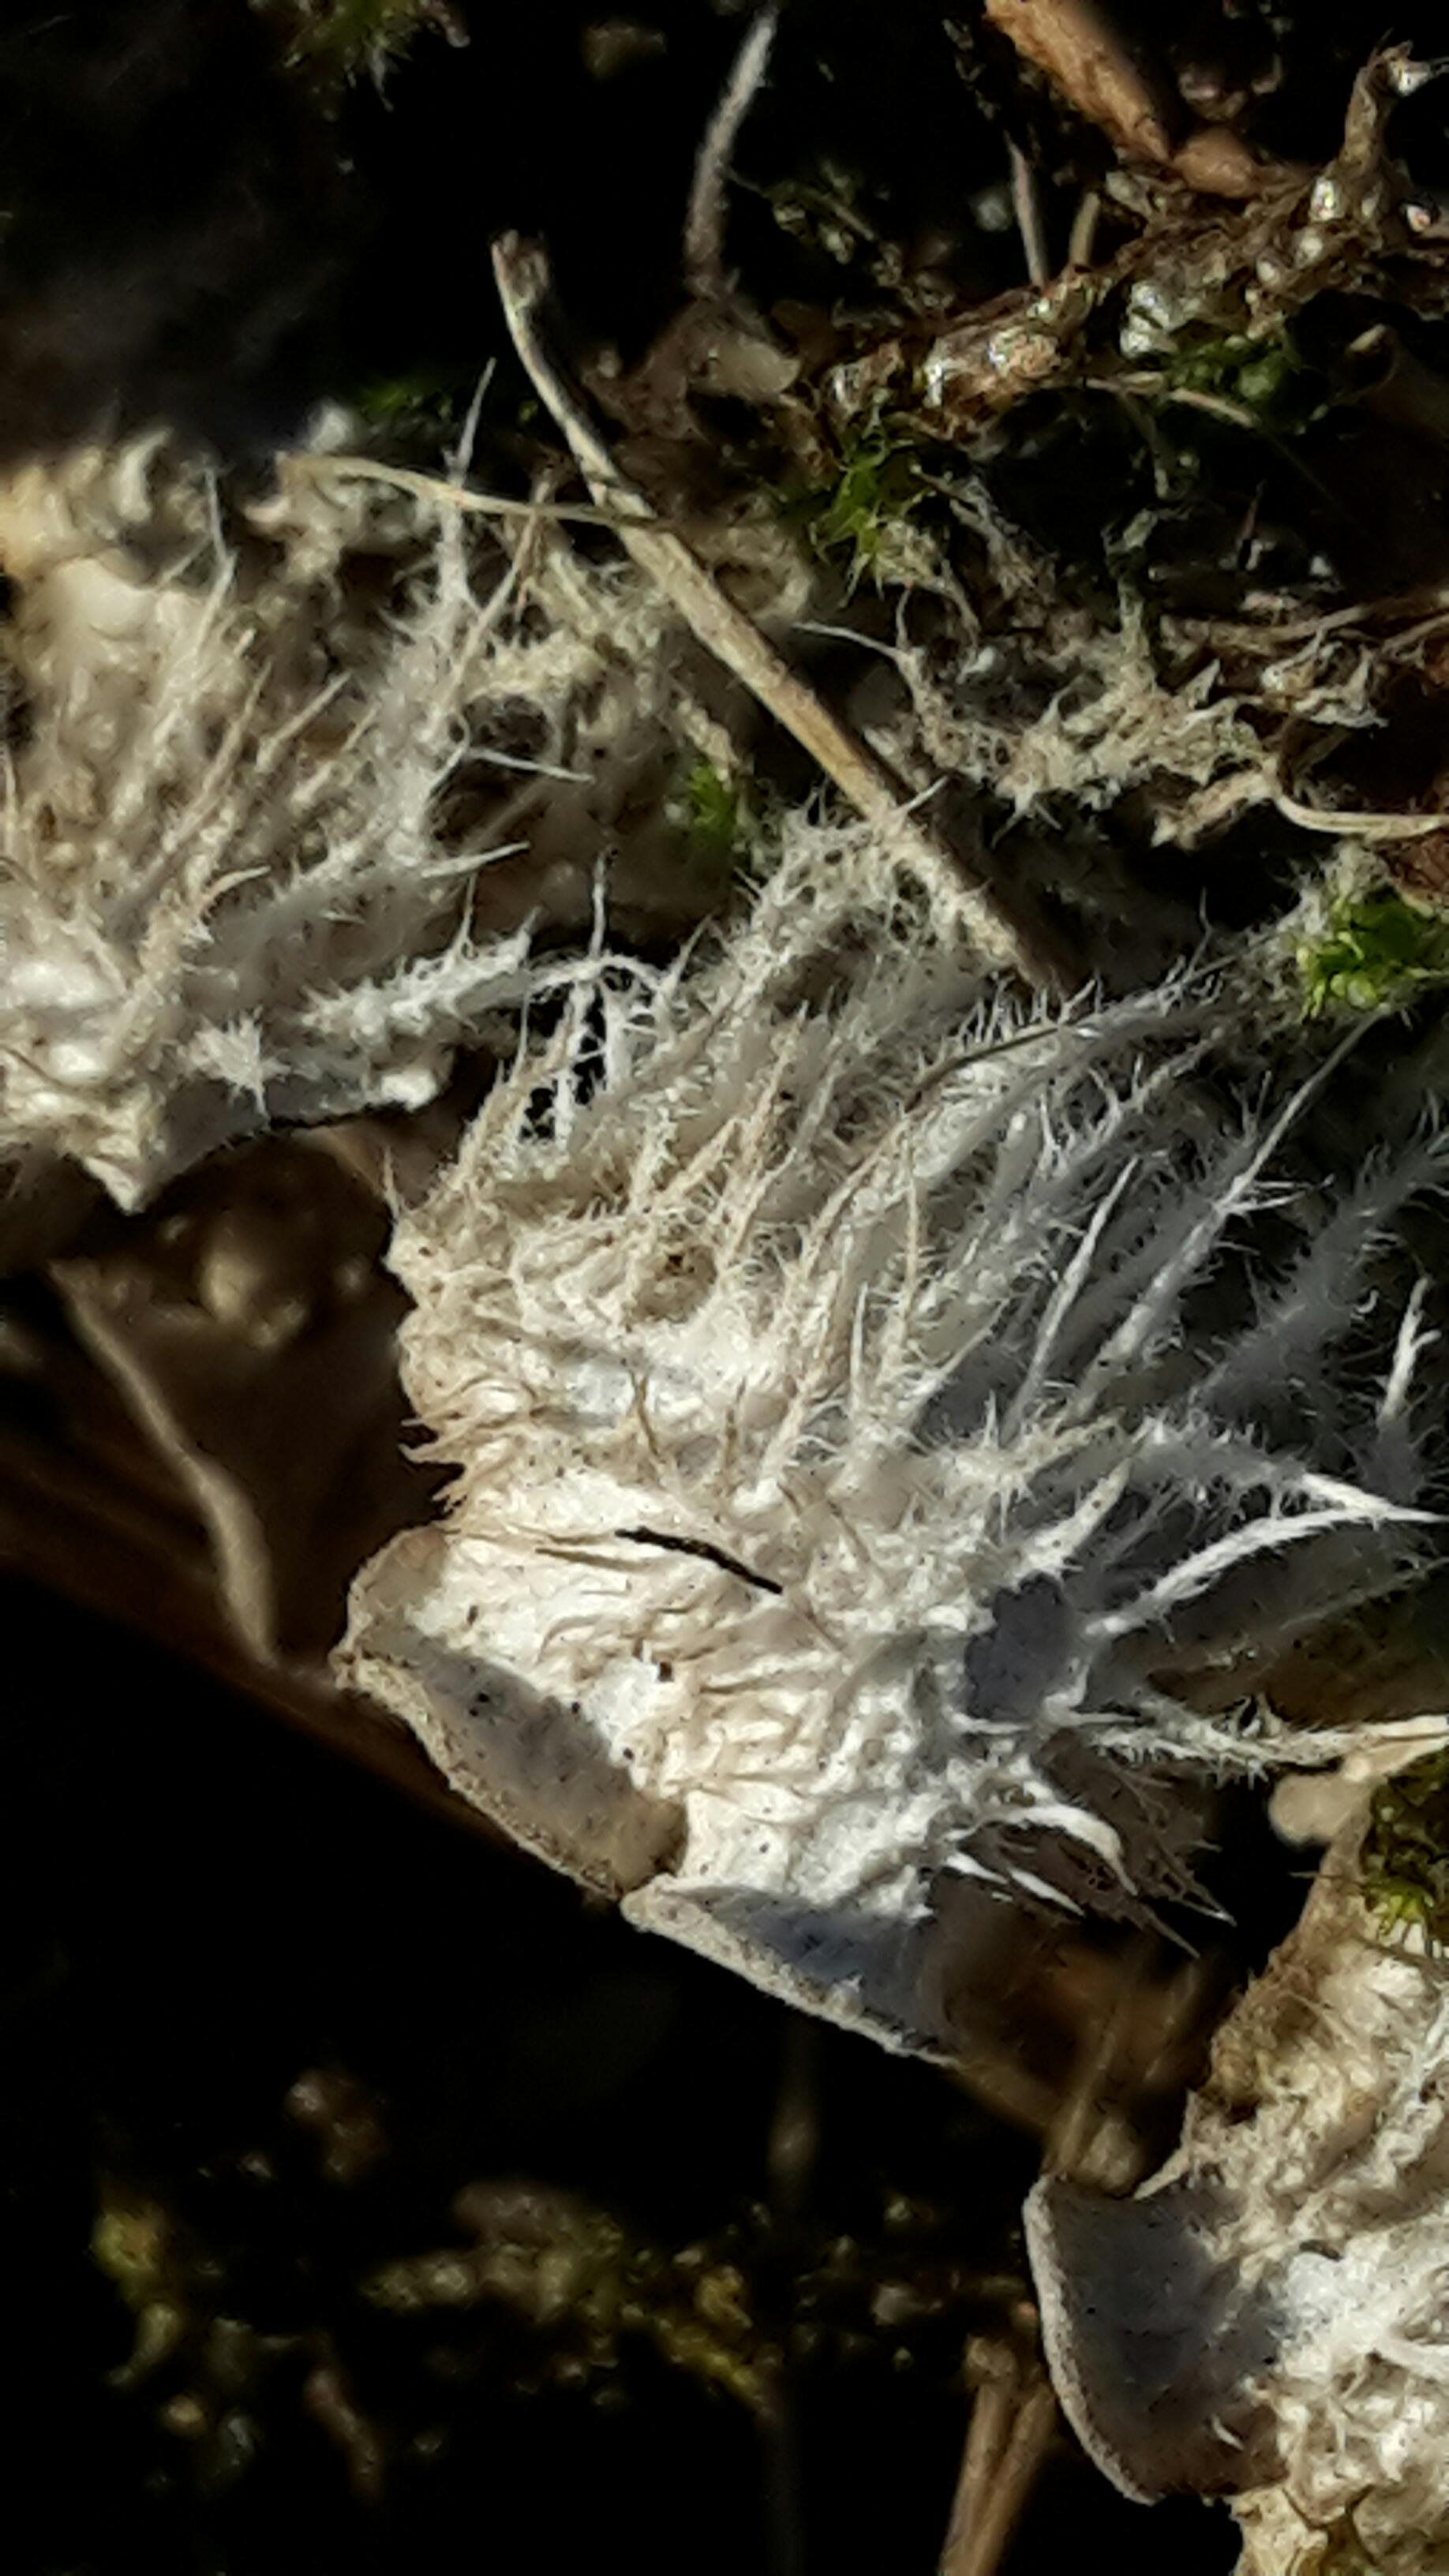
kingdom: Fungi
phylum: Ascomycota
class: Lecanoromycetes
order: Peltigerales
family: Peltigeraceae
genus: Peltigera
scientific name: Peltigera canina
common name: hunde-skjoldlav
